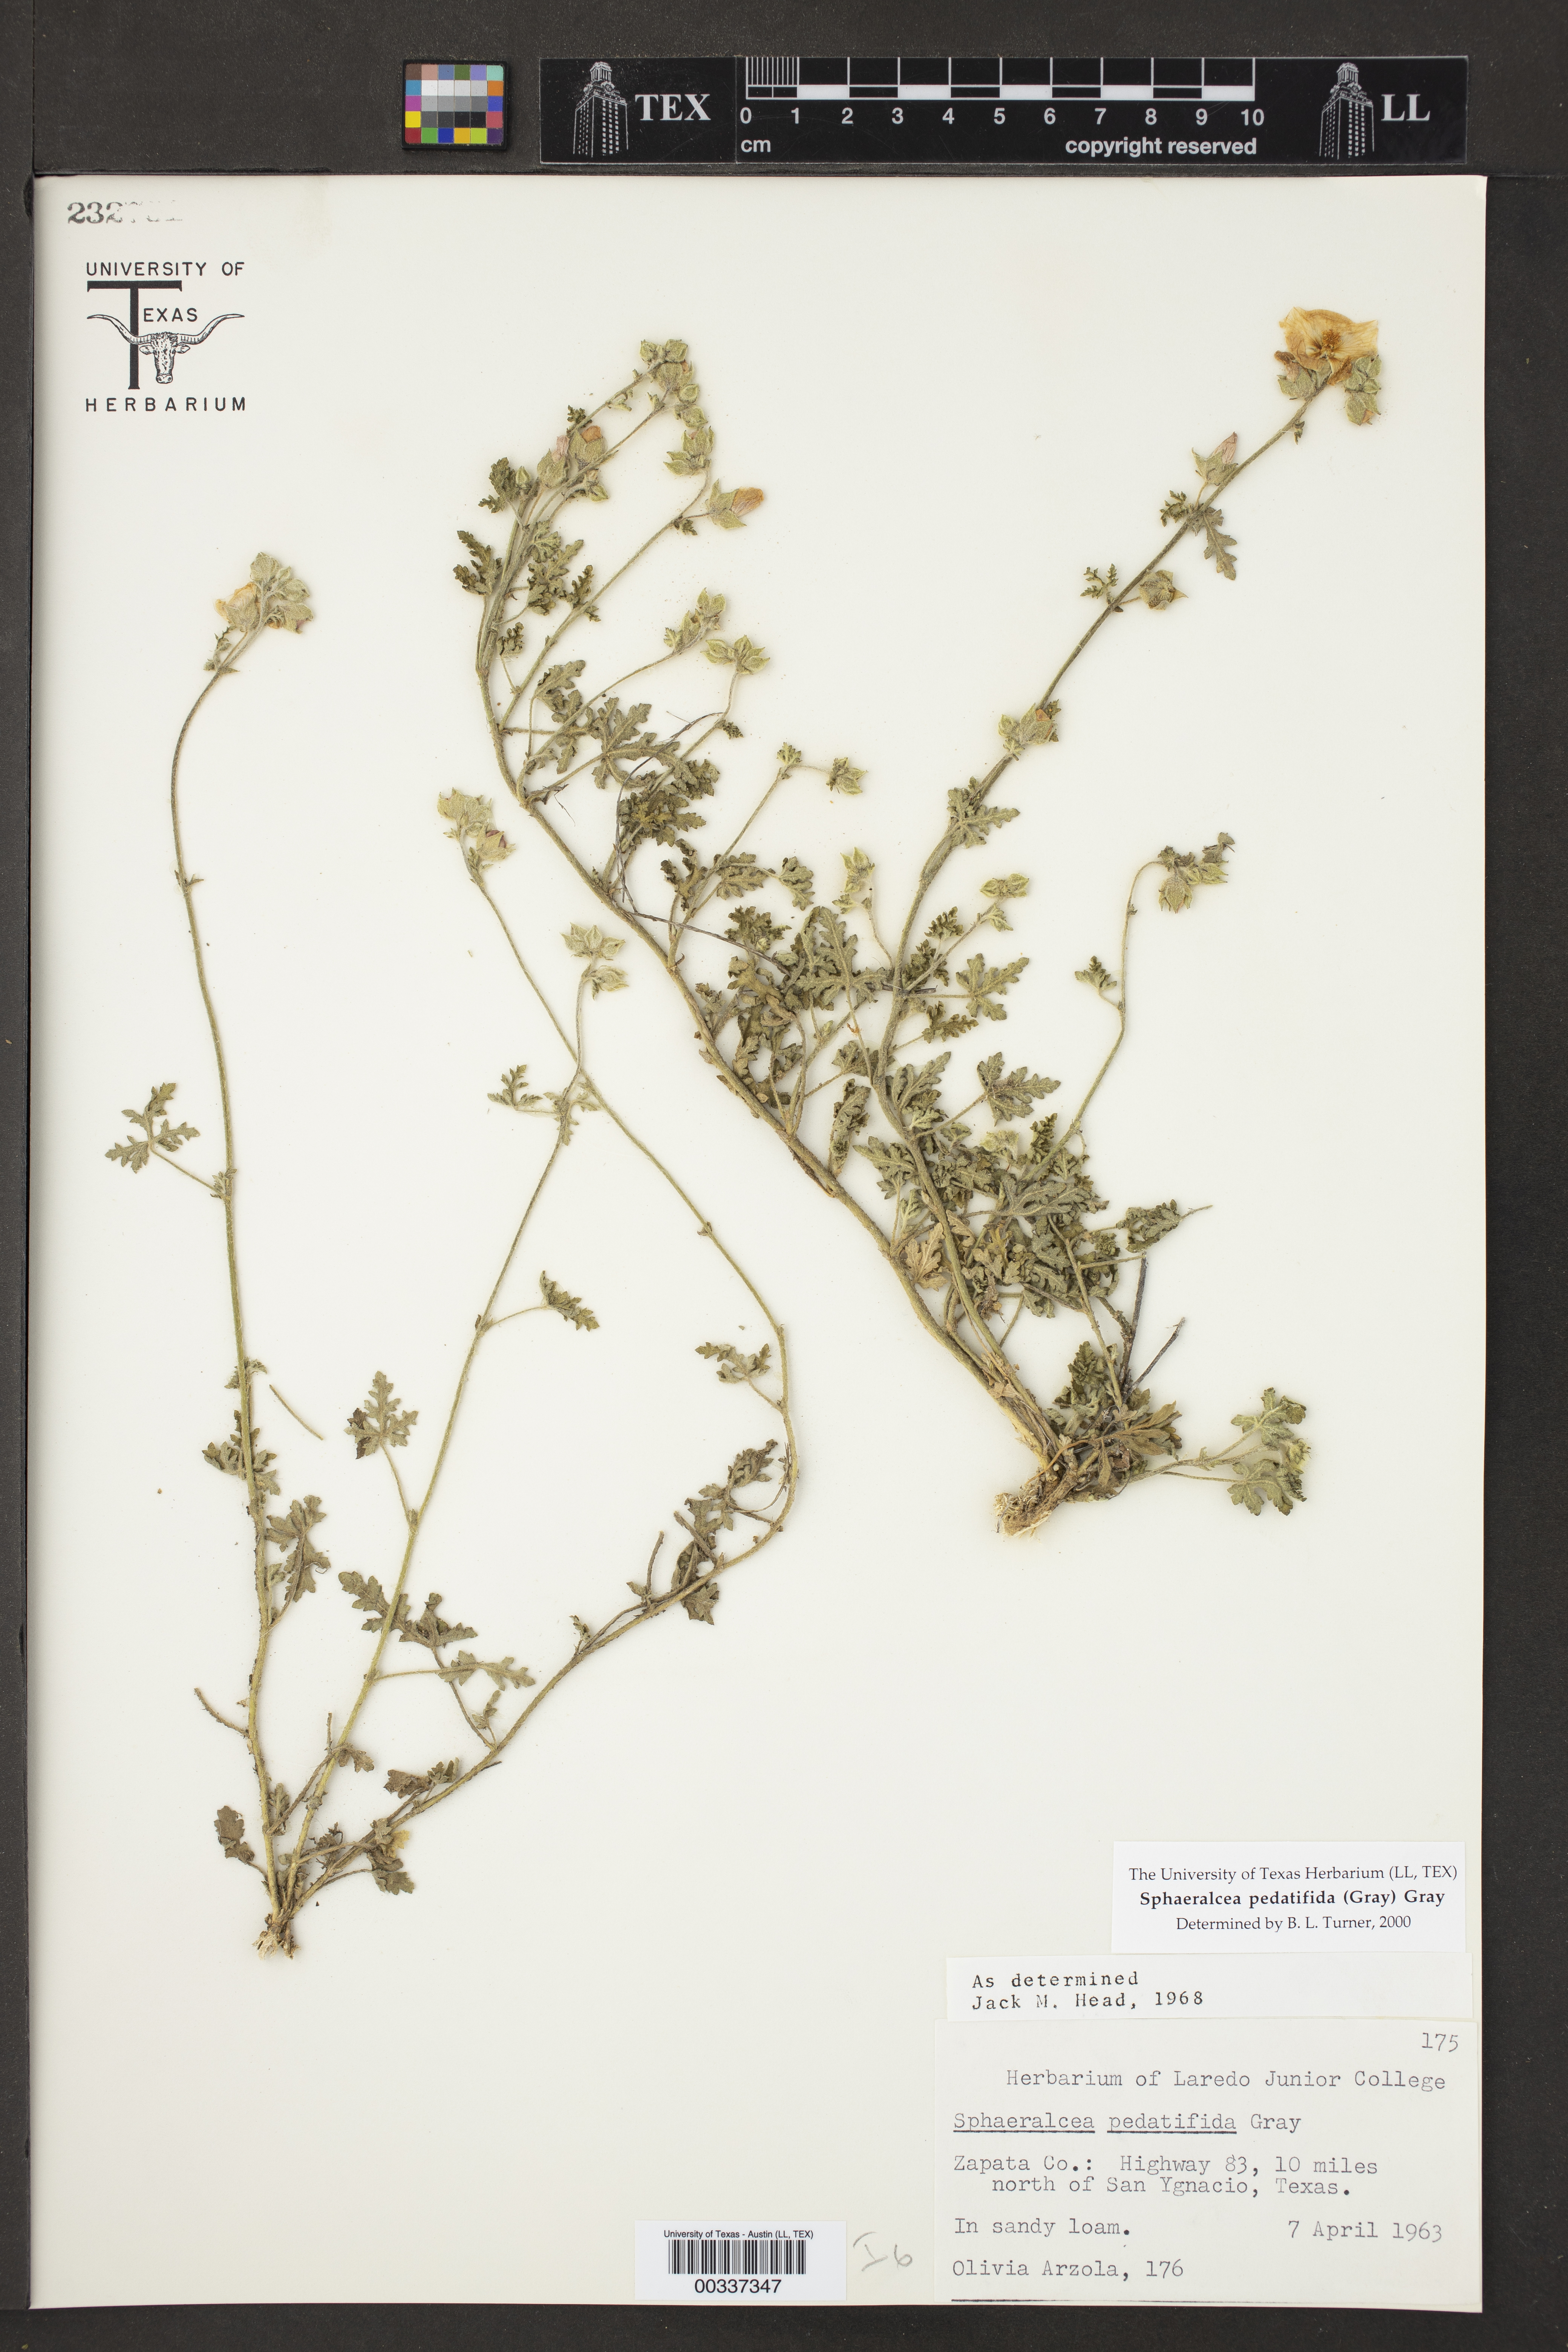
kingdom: Plantae
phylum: Tracheophyta
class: Magnoliopsida
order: Malvales
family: Malvaceae
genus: Sphaeralcea
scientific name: Sphaeralcea pedatifida
